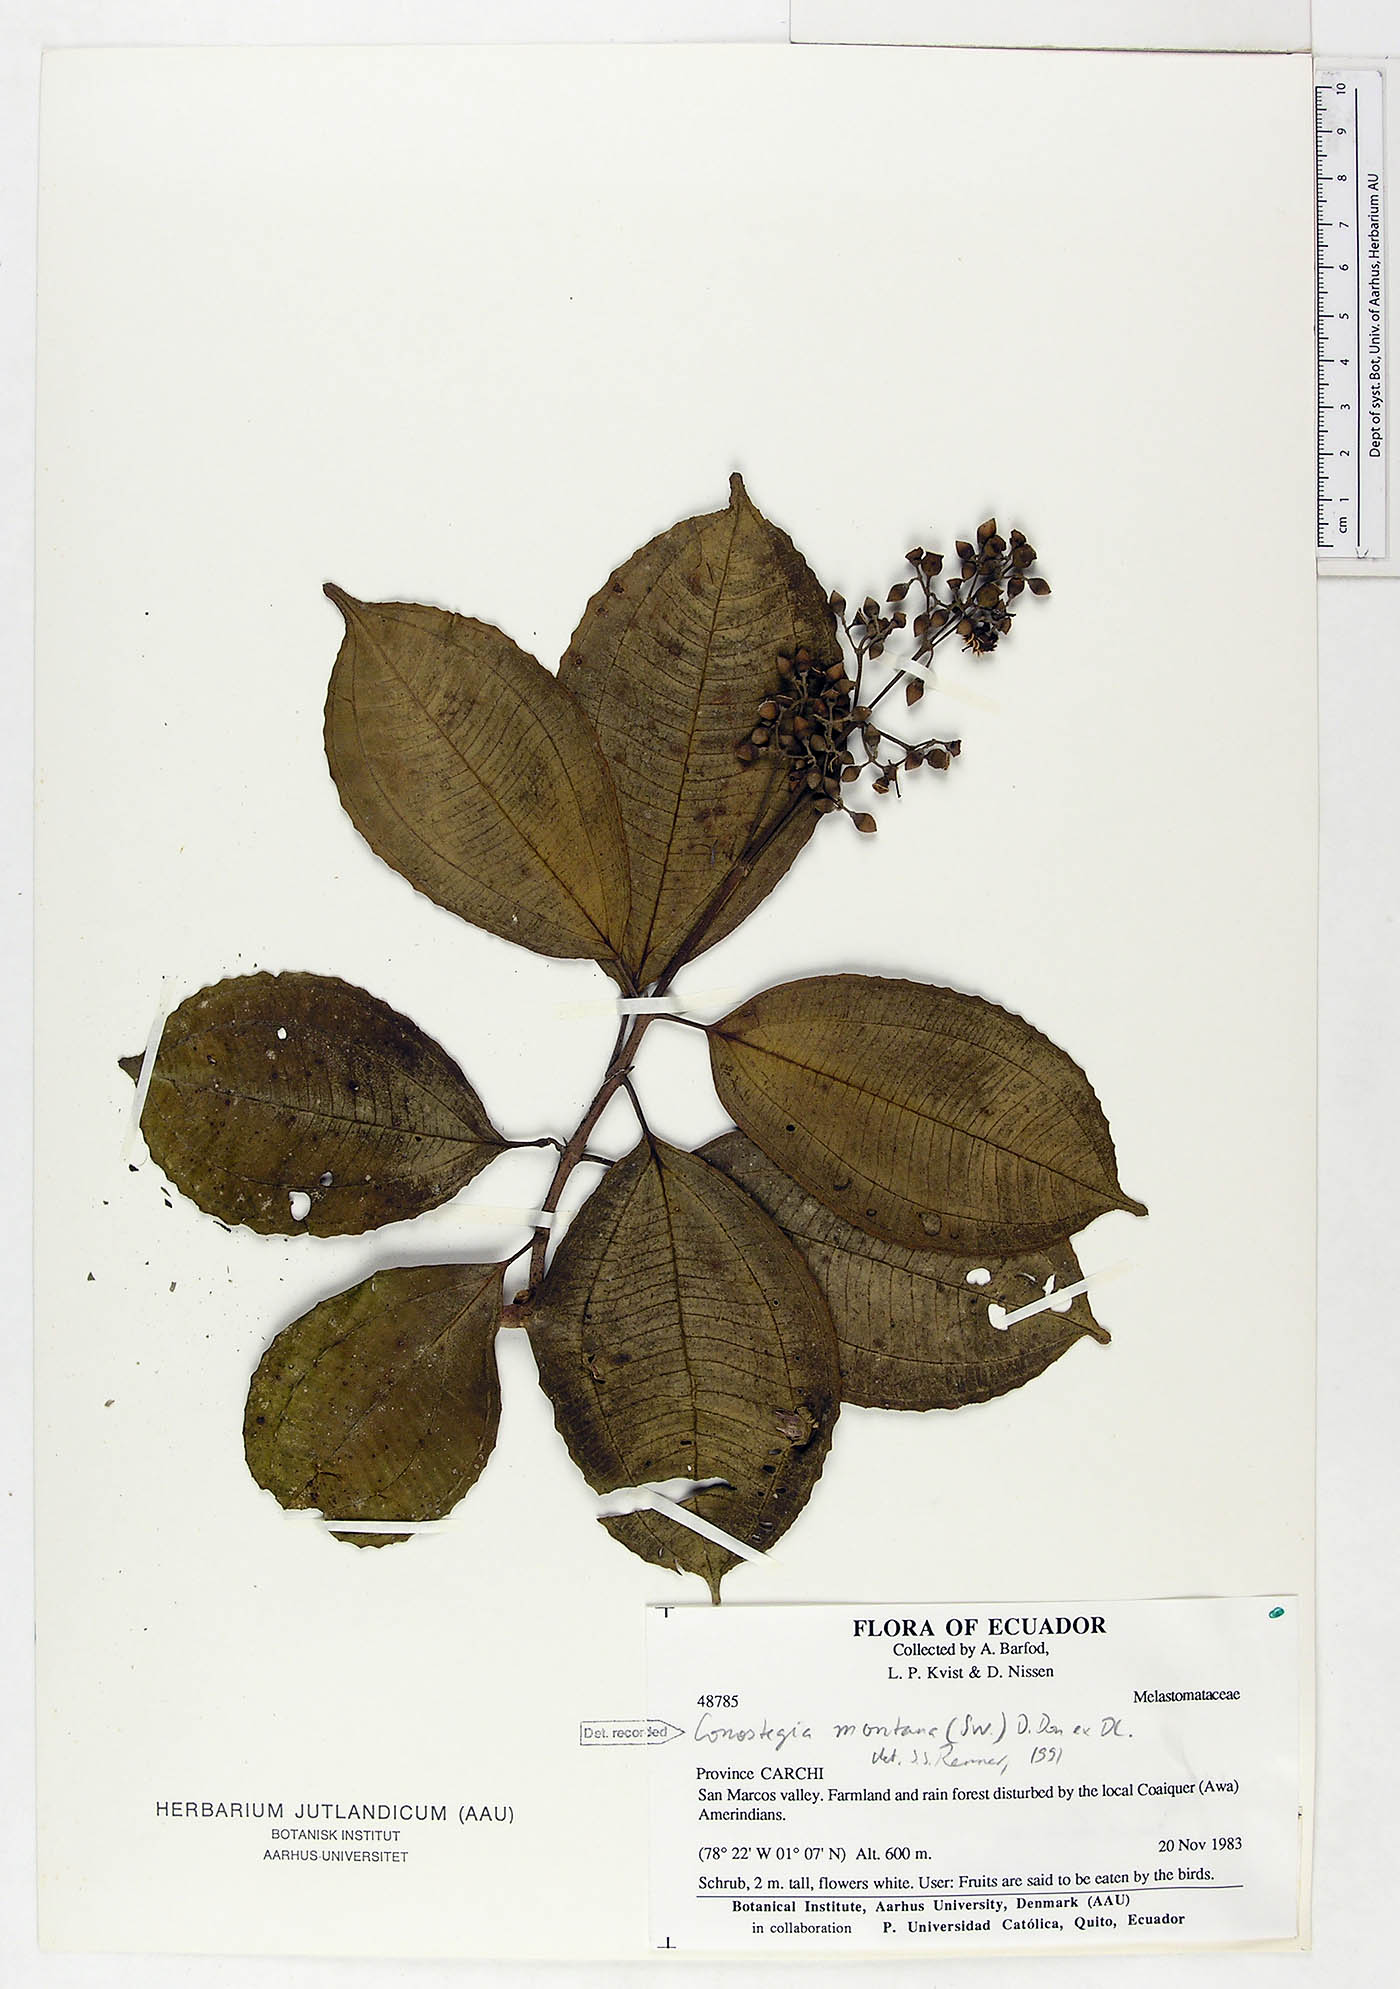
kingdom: Plantae
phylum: Tracheophyta
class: Magnoliopsida
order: Myrtales
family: Melastomataceae
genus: Miconia
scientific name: Miconia cooperi
